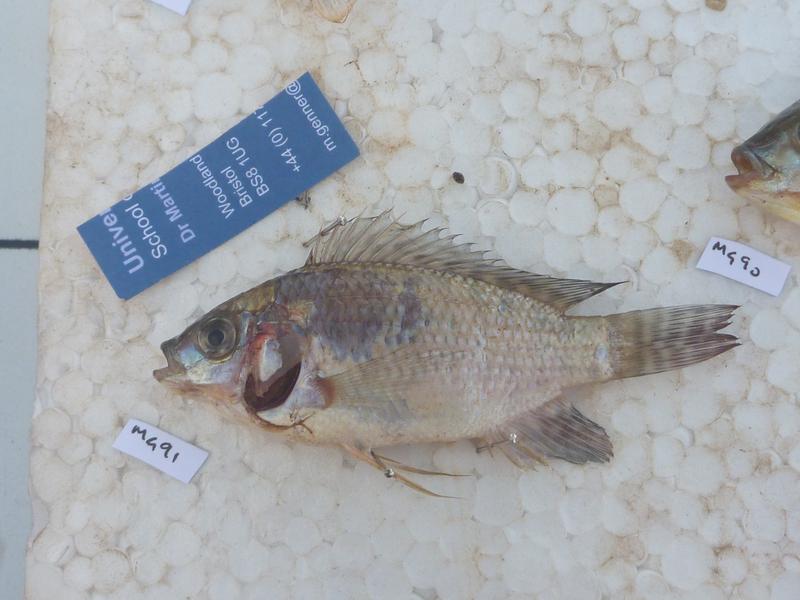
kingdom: Animalia
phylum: Chordata
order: Perciformes
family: Cichlidae
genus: Oreochromis
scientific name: Oreochromis niloticus
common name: Nile tilapia
